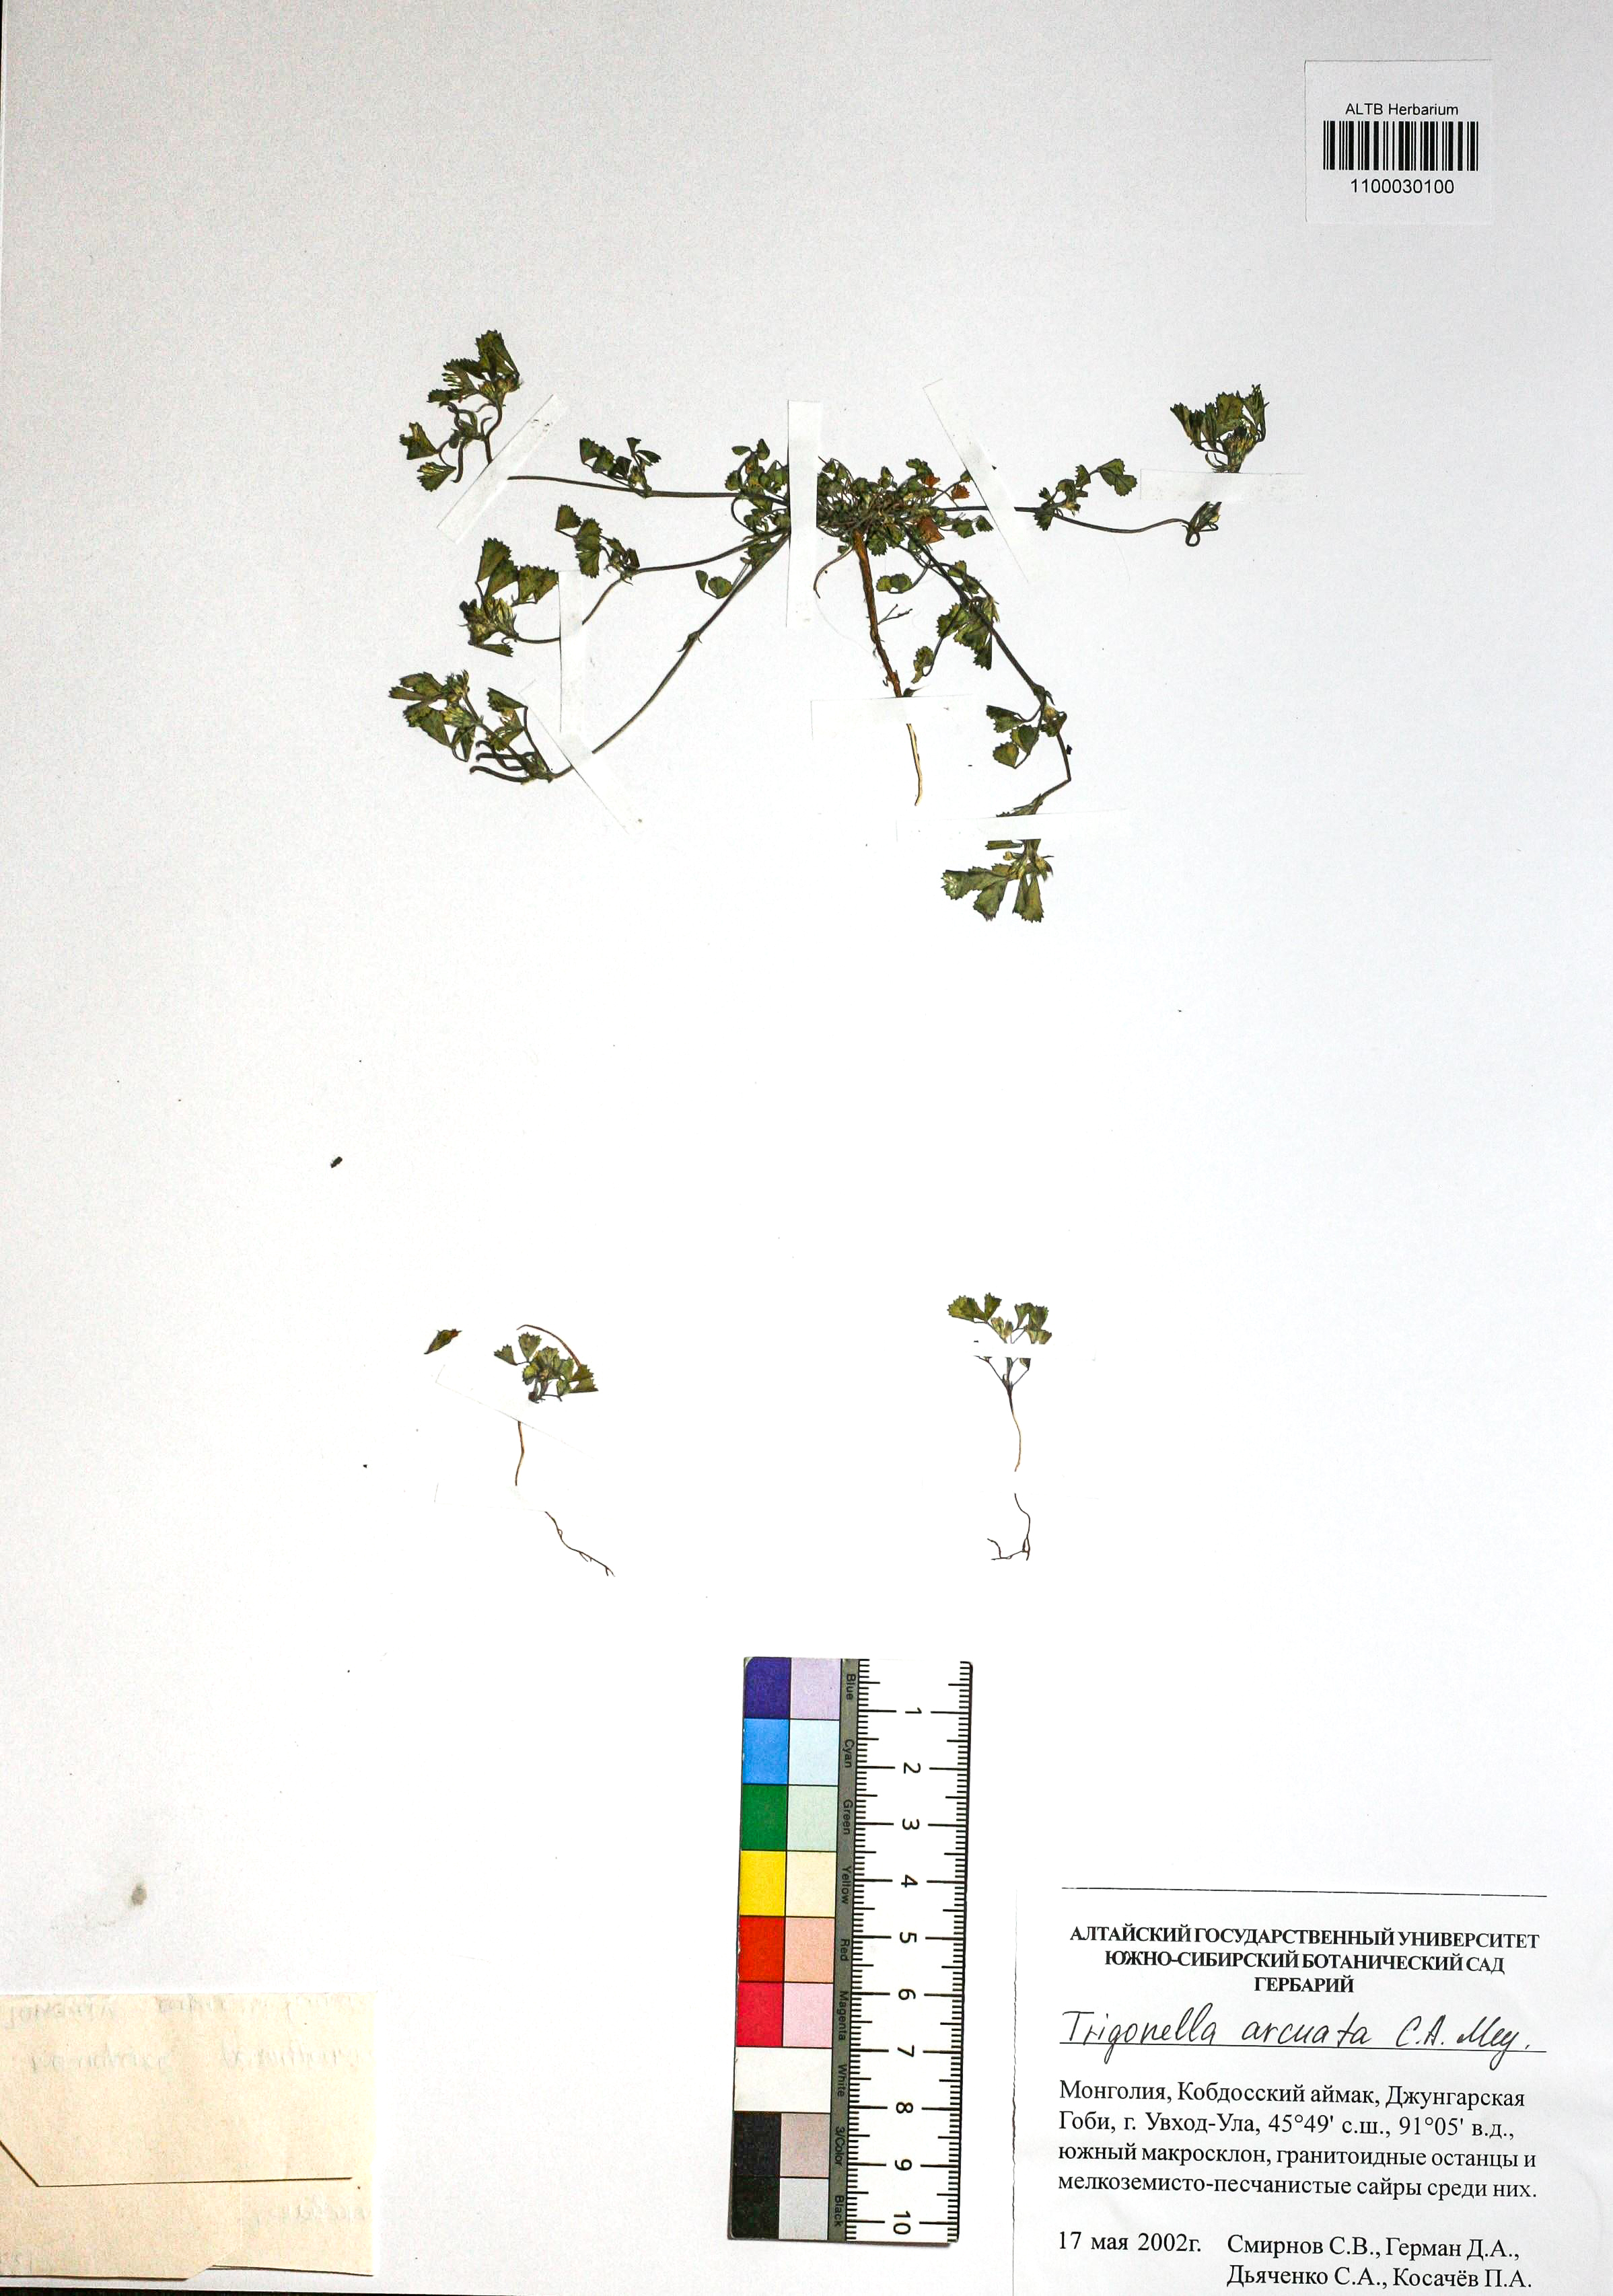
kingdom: Plantae
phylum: Tracheophyta
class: Magnoliopsida
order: Fabales
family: Fabaceae
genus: Medicago
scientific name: Medicago medicaginoides
